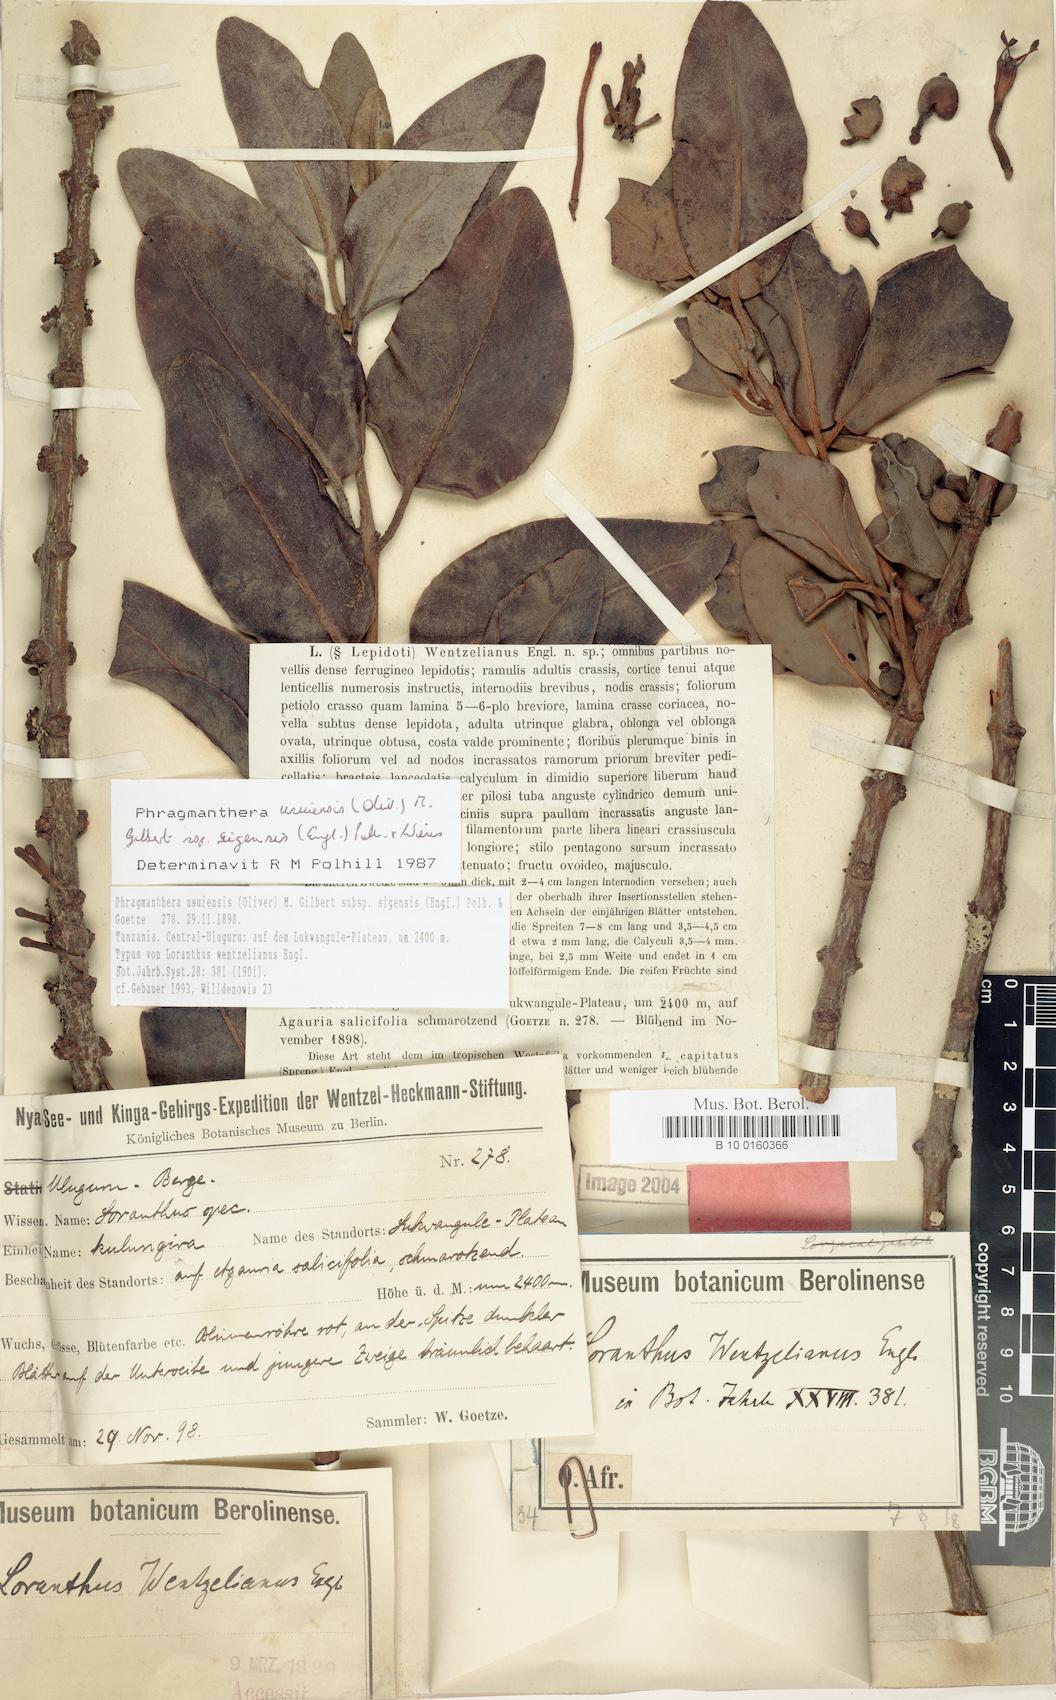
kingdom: Plantae
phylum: Tracheophyta
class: Magnoliopsida
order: Santalales
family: Loranthaceae
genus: Phragmanthera
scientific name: Phragmanthera usuiensis
